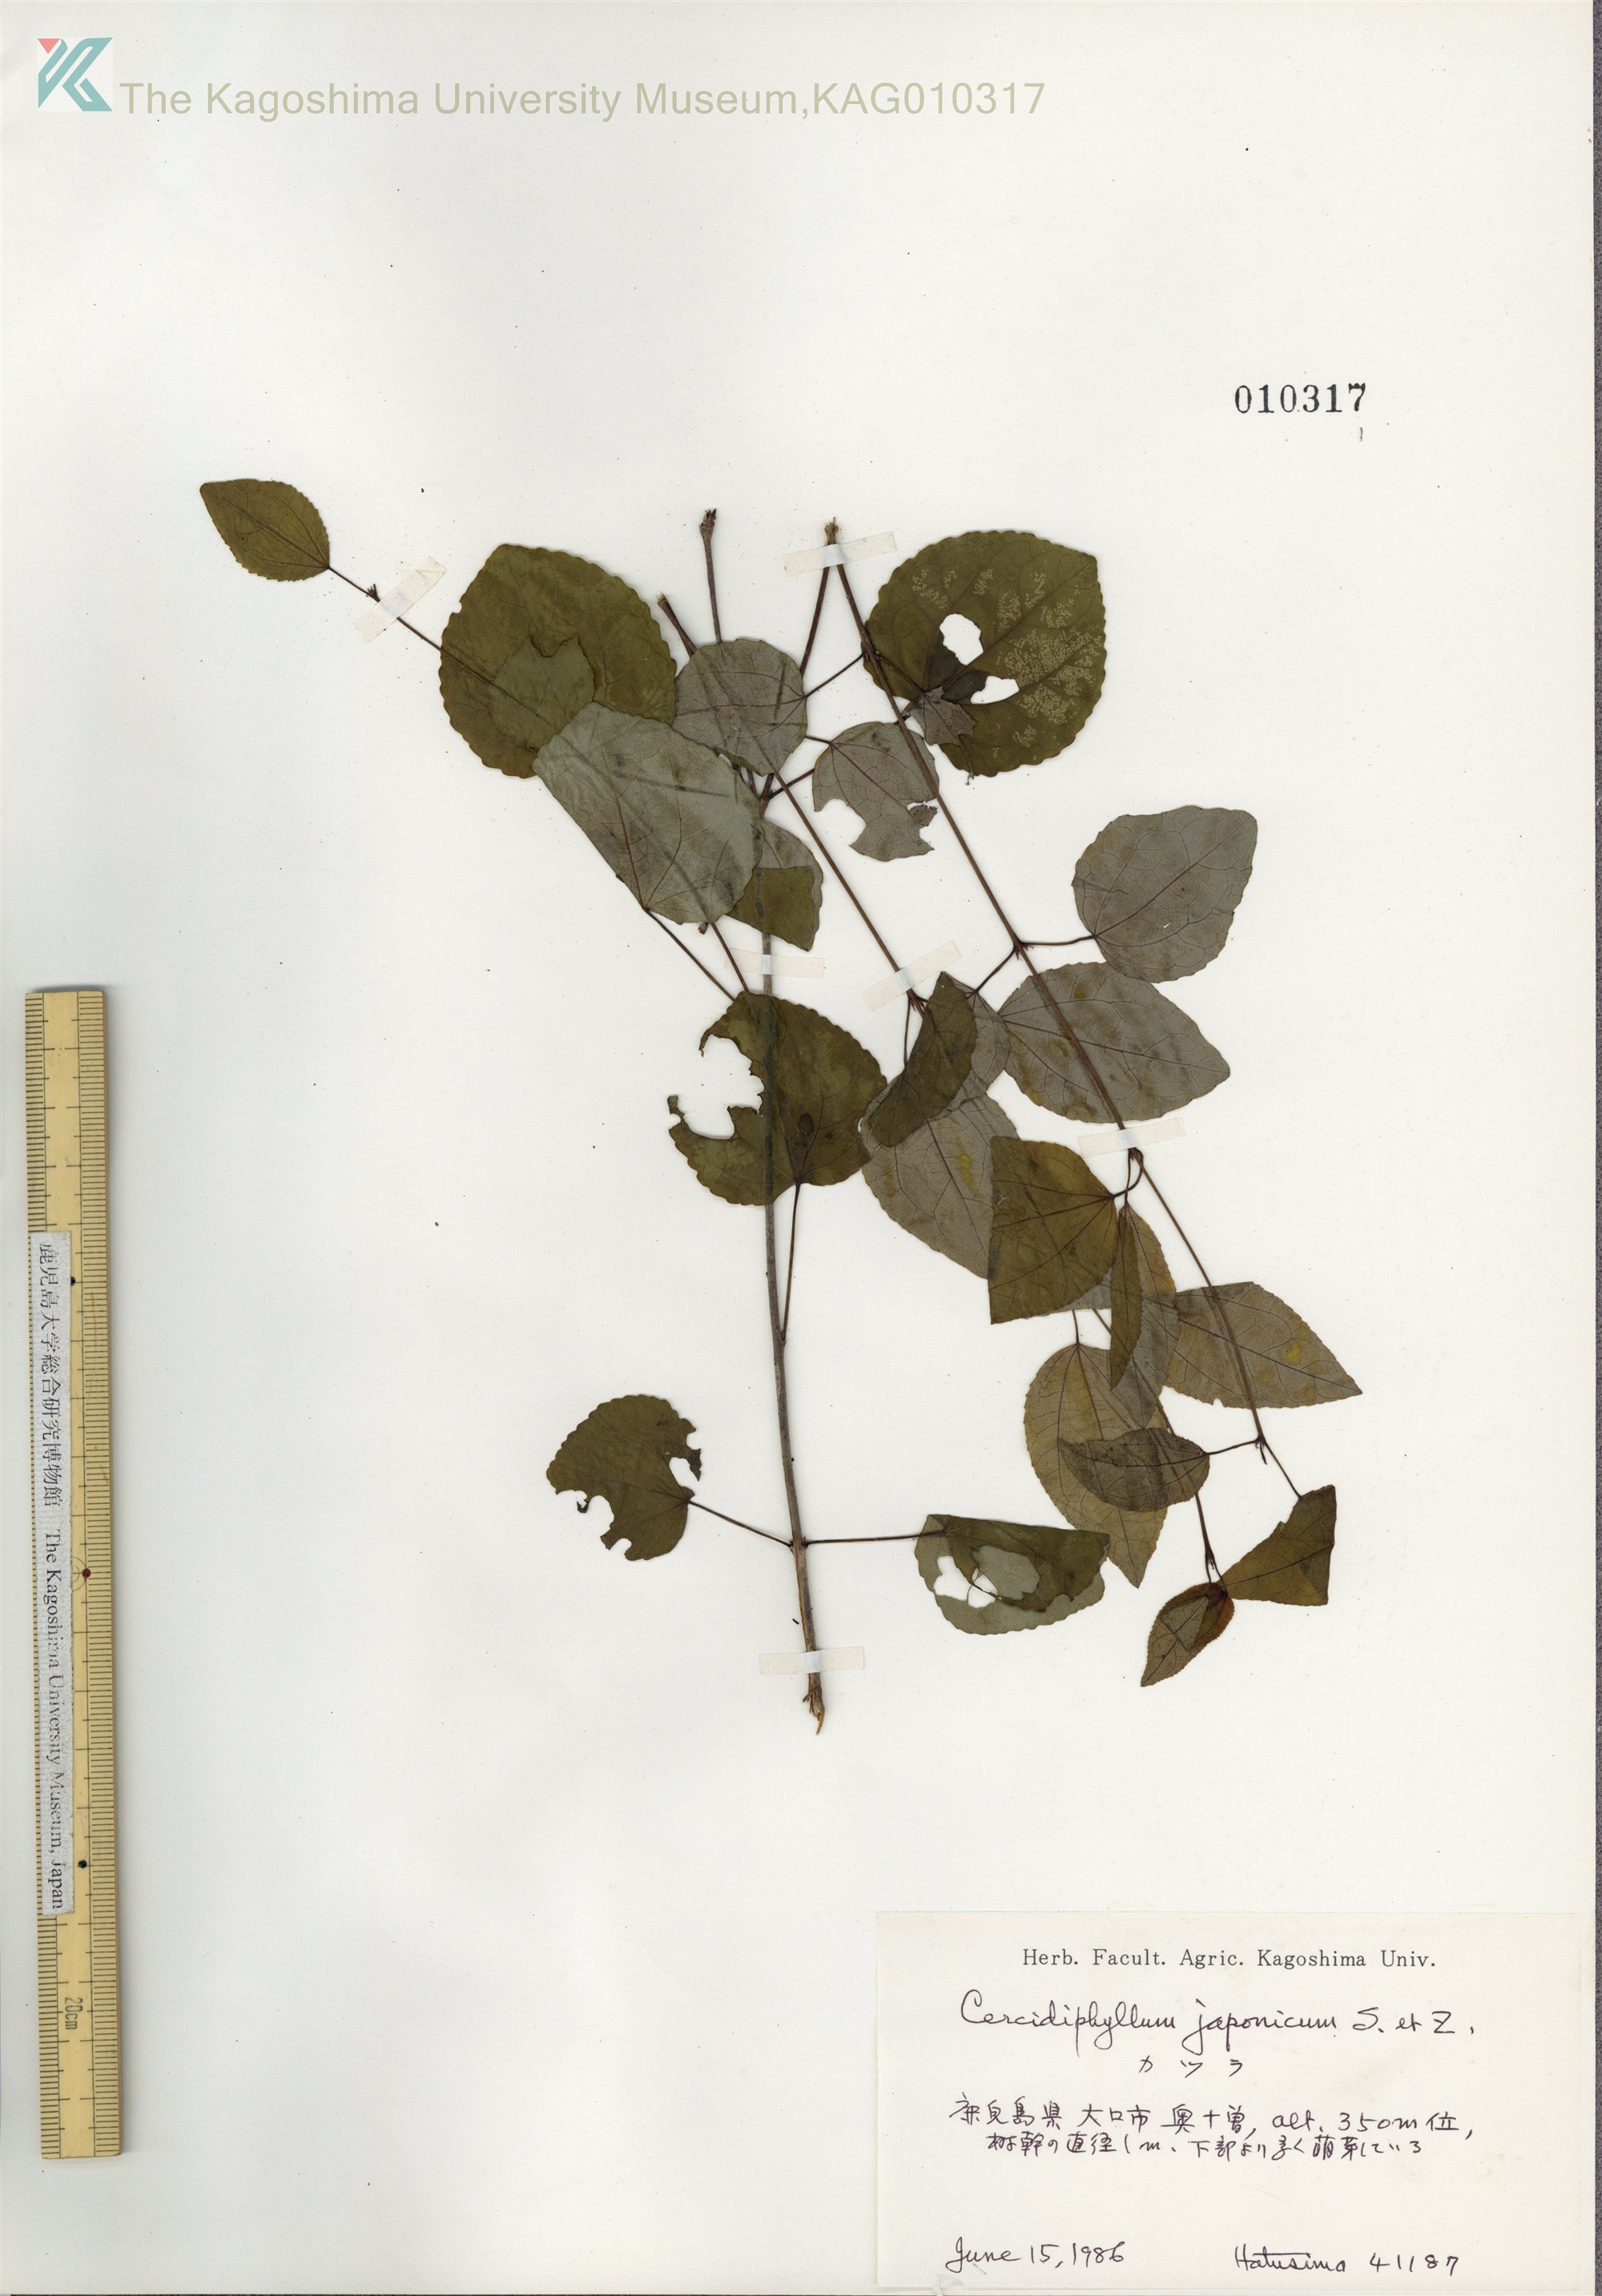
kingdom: Plantae
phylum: Tracheophyta
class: Magnoliopsida
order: Saxifragales
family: Cercidiphyllaceae
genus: Cercidiphyllum
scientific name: Cercidiphyllum japonicum
